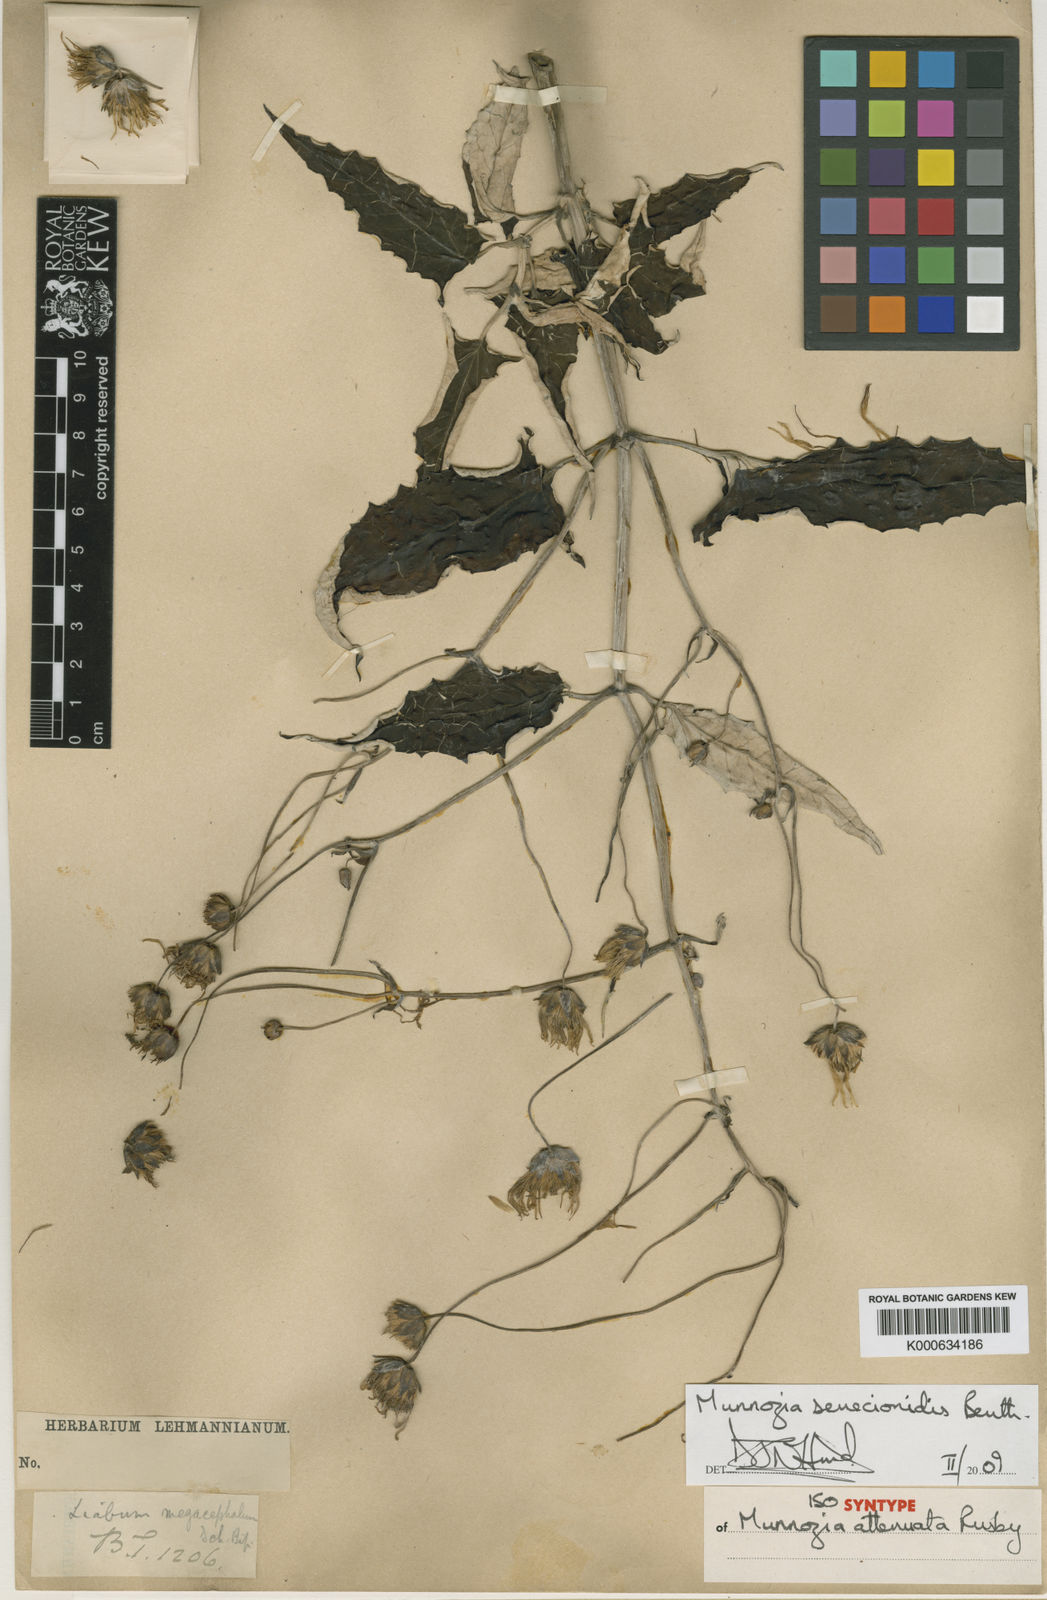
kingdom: Plantae
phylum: Tracheophyta
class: Magnoliopsida
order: Asterales
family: Asteraceae
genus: Munnozia
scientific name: Munnozia senecionidis
